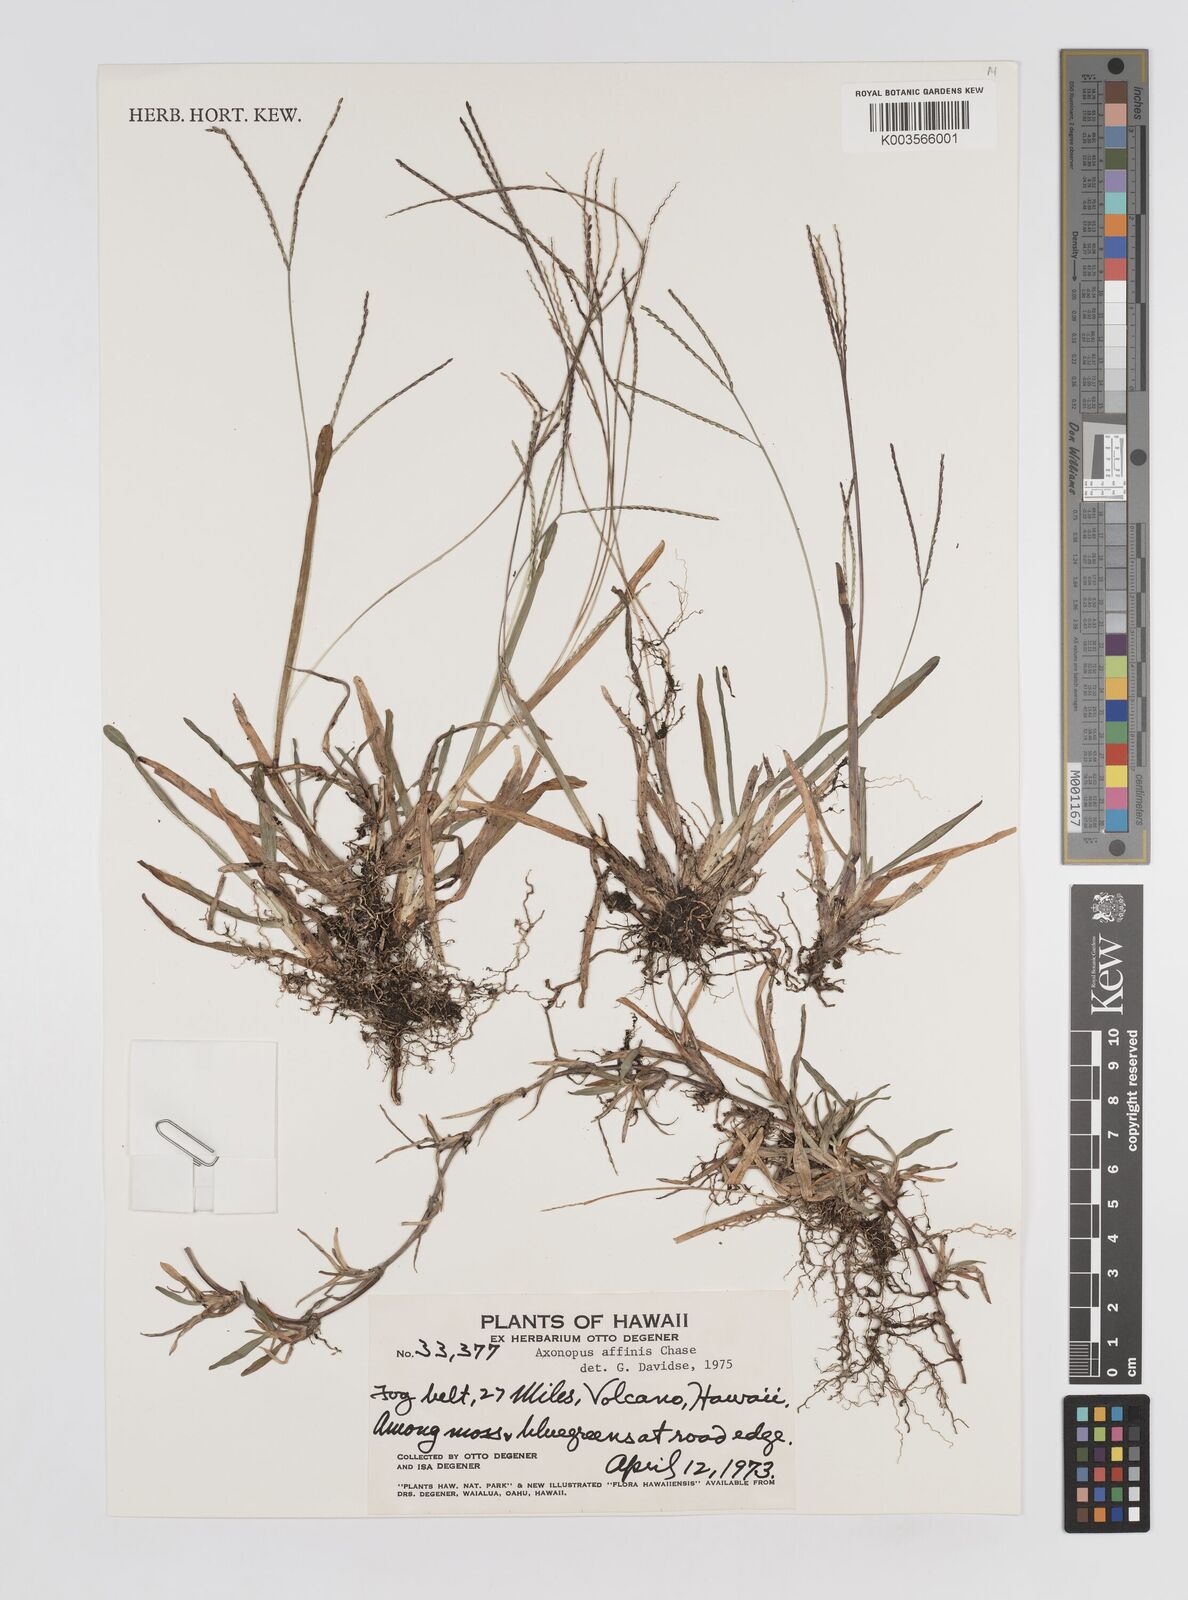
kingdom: Plantae
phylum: Tracheophyta
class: Liliopsida
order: Poales
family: Poaceae
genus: Axonopus
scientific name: Axonopus fissifolius
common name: Common carpetgrass
